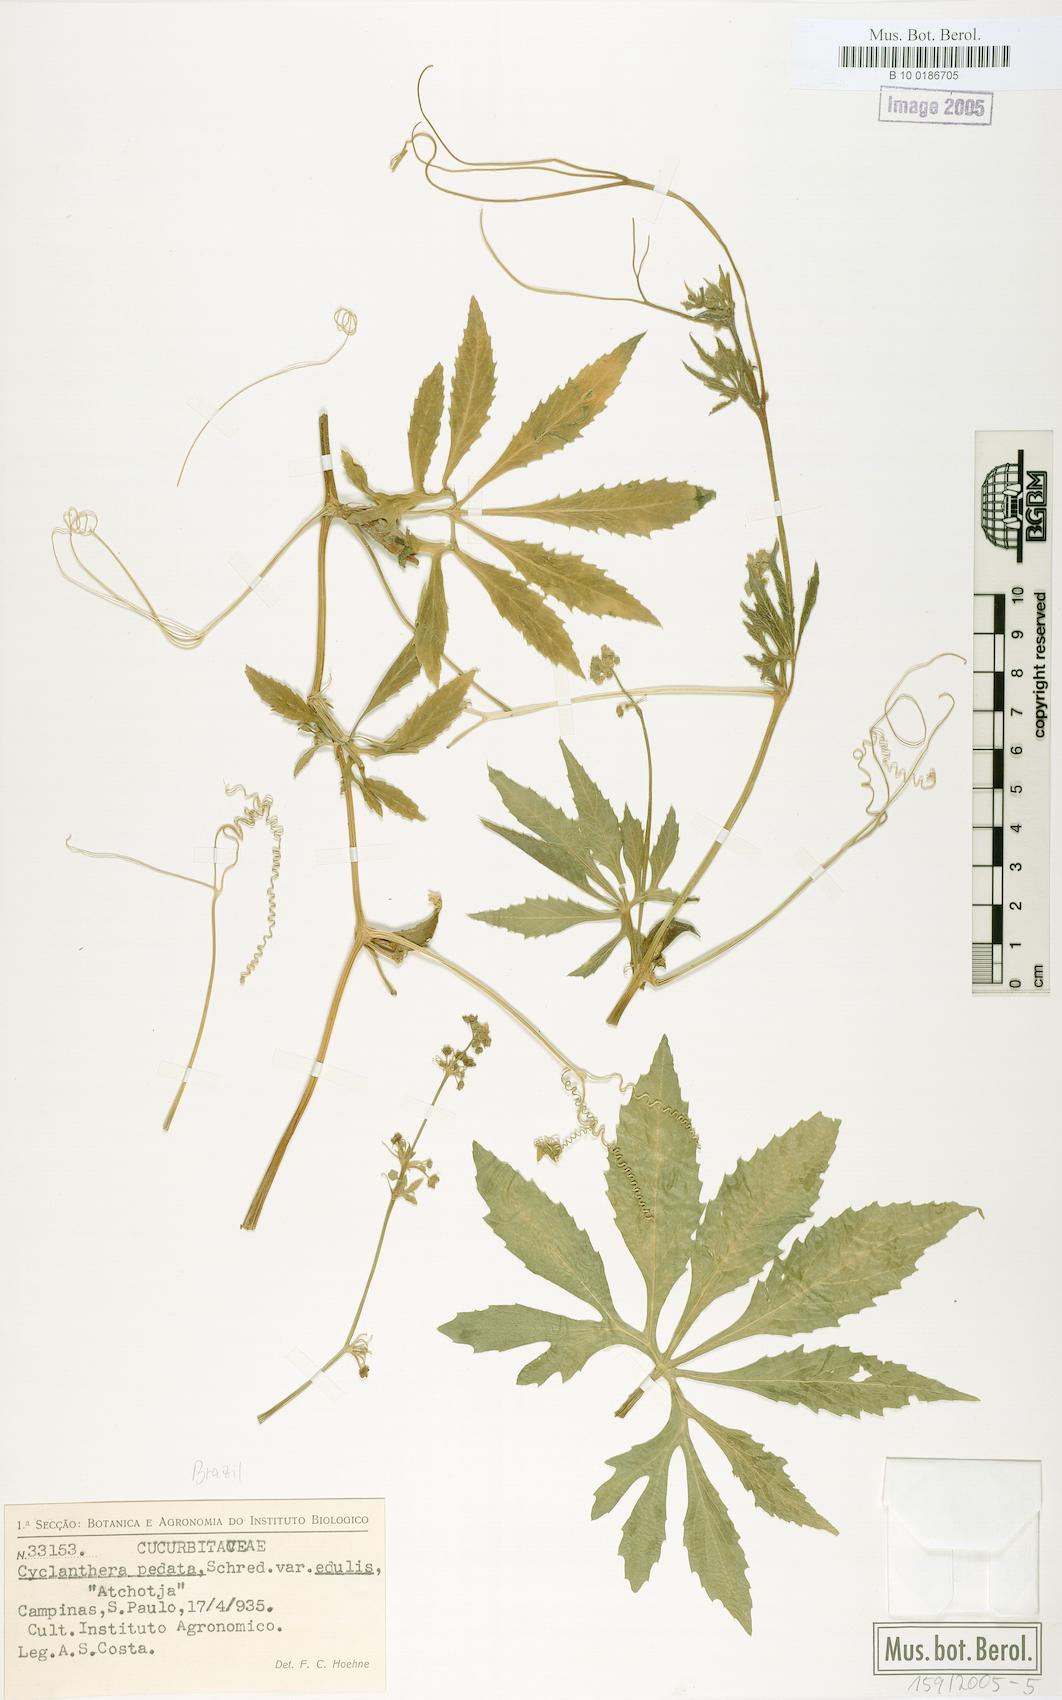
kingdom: Plantae
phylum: Tracheophyta
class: Magnoliopsida
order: Cucurbitales
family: Cucurbitaceae
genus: Cyclanthera
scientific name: Cyclanthera pedata
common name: Slipper goard
